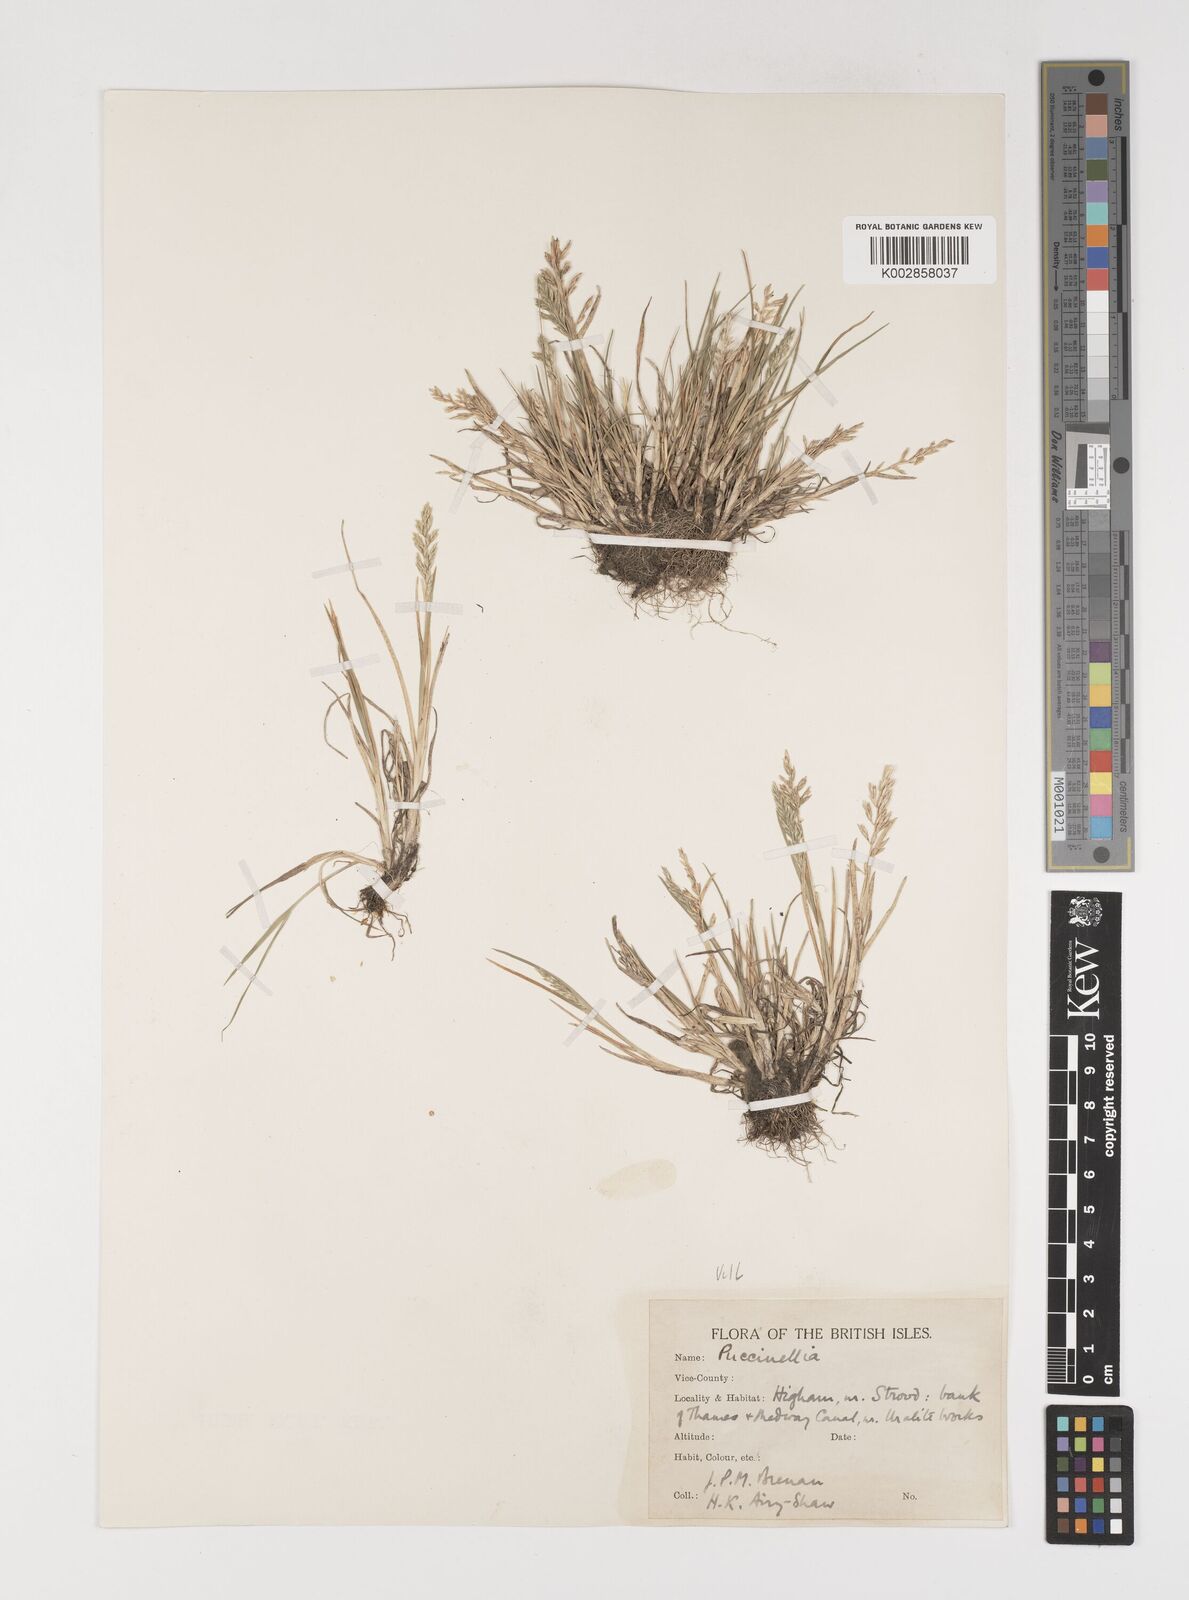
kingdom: Plantae
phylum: Tracheophyta
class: Liliopsida
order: Poales
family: Poaceae
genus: Puccinellia
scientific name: Puccinellia rupestris
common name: Stiff saltmarsh-grass
